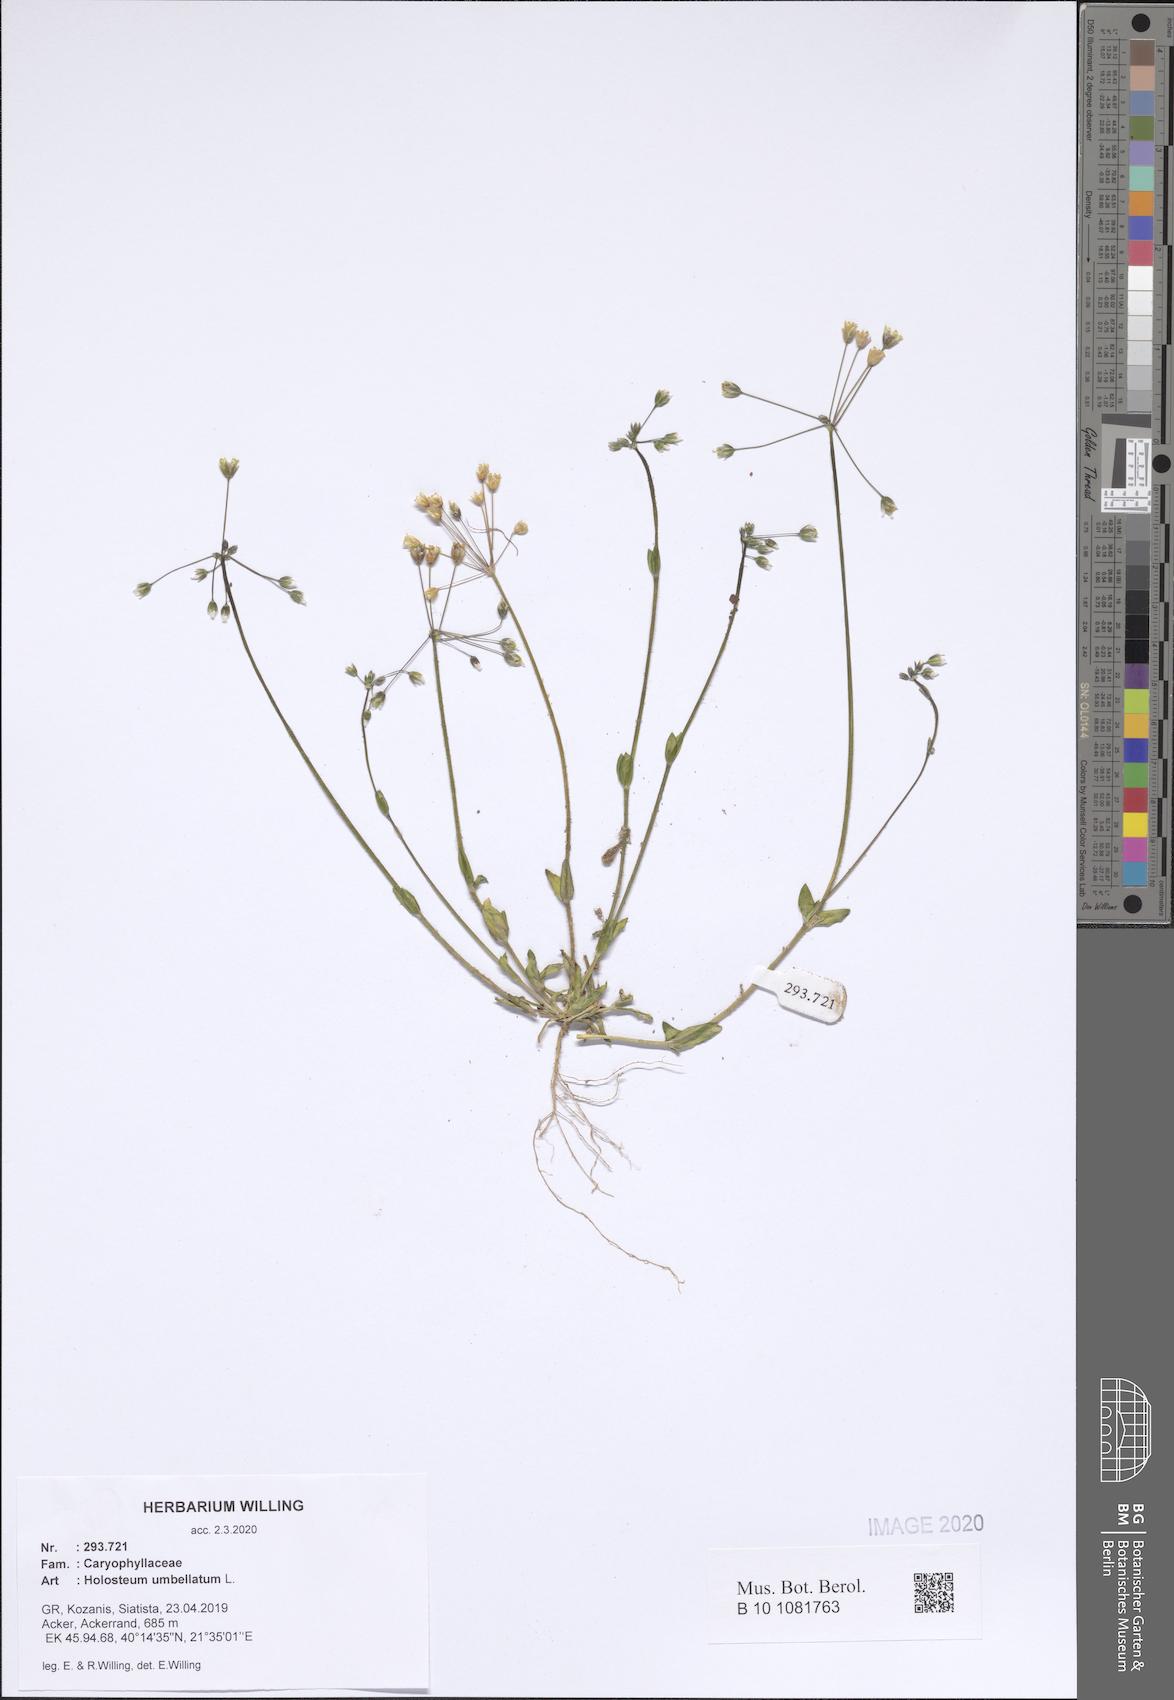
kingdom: Plantae
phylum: Tracheophyta
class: Magnoliopsida
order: Caryophyllales
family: Caryophyllaceae
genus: Holosteum
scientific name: Holosteum umbellatum
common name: Jagged chickweed
